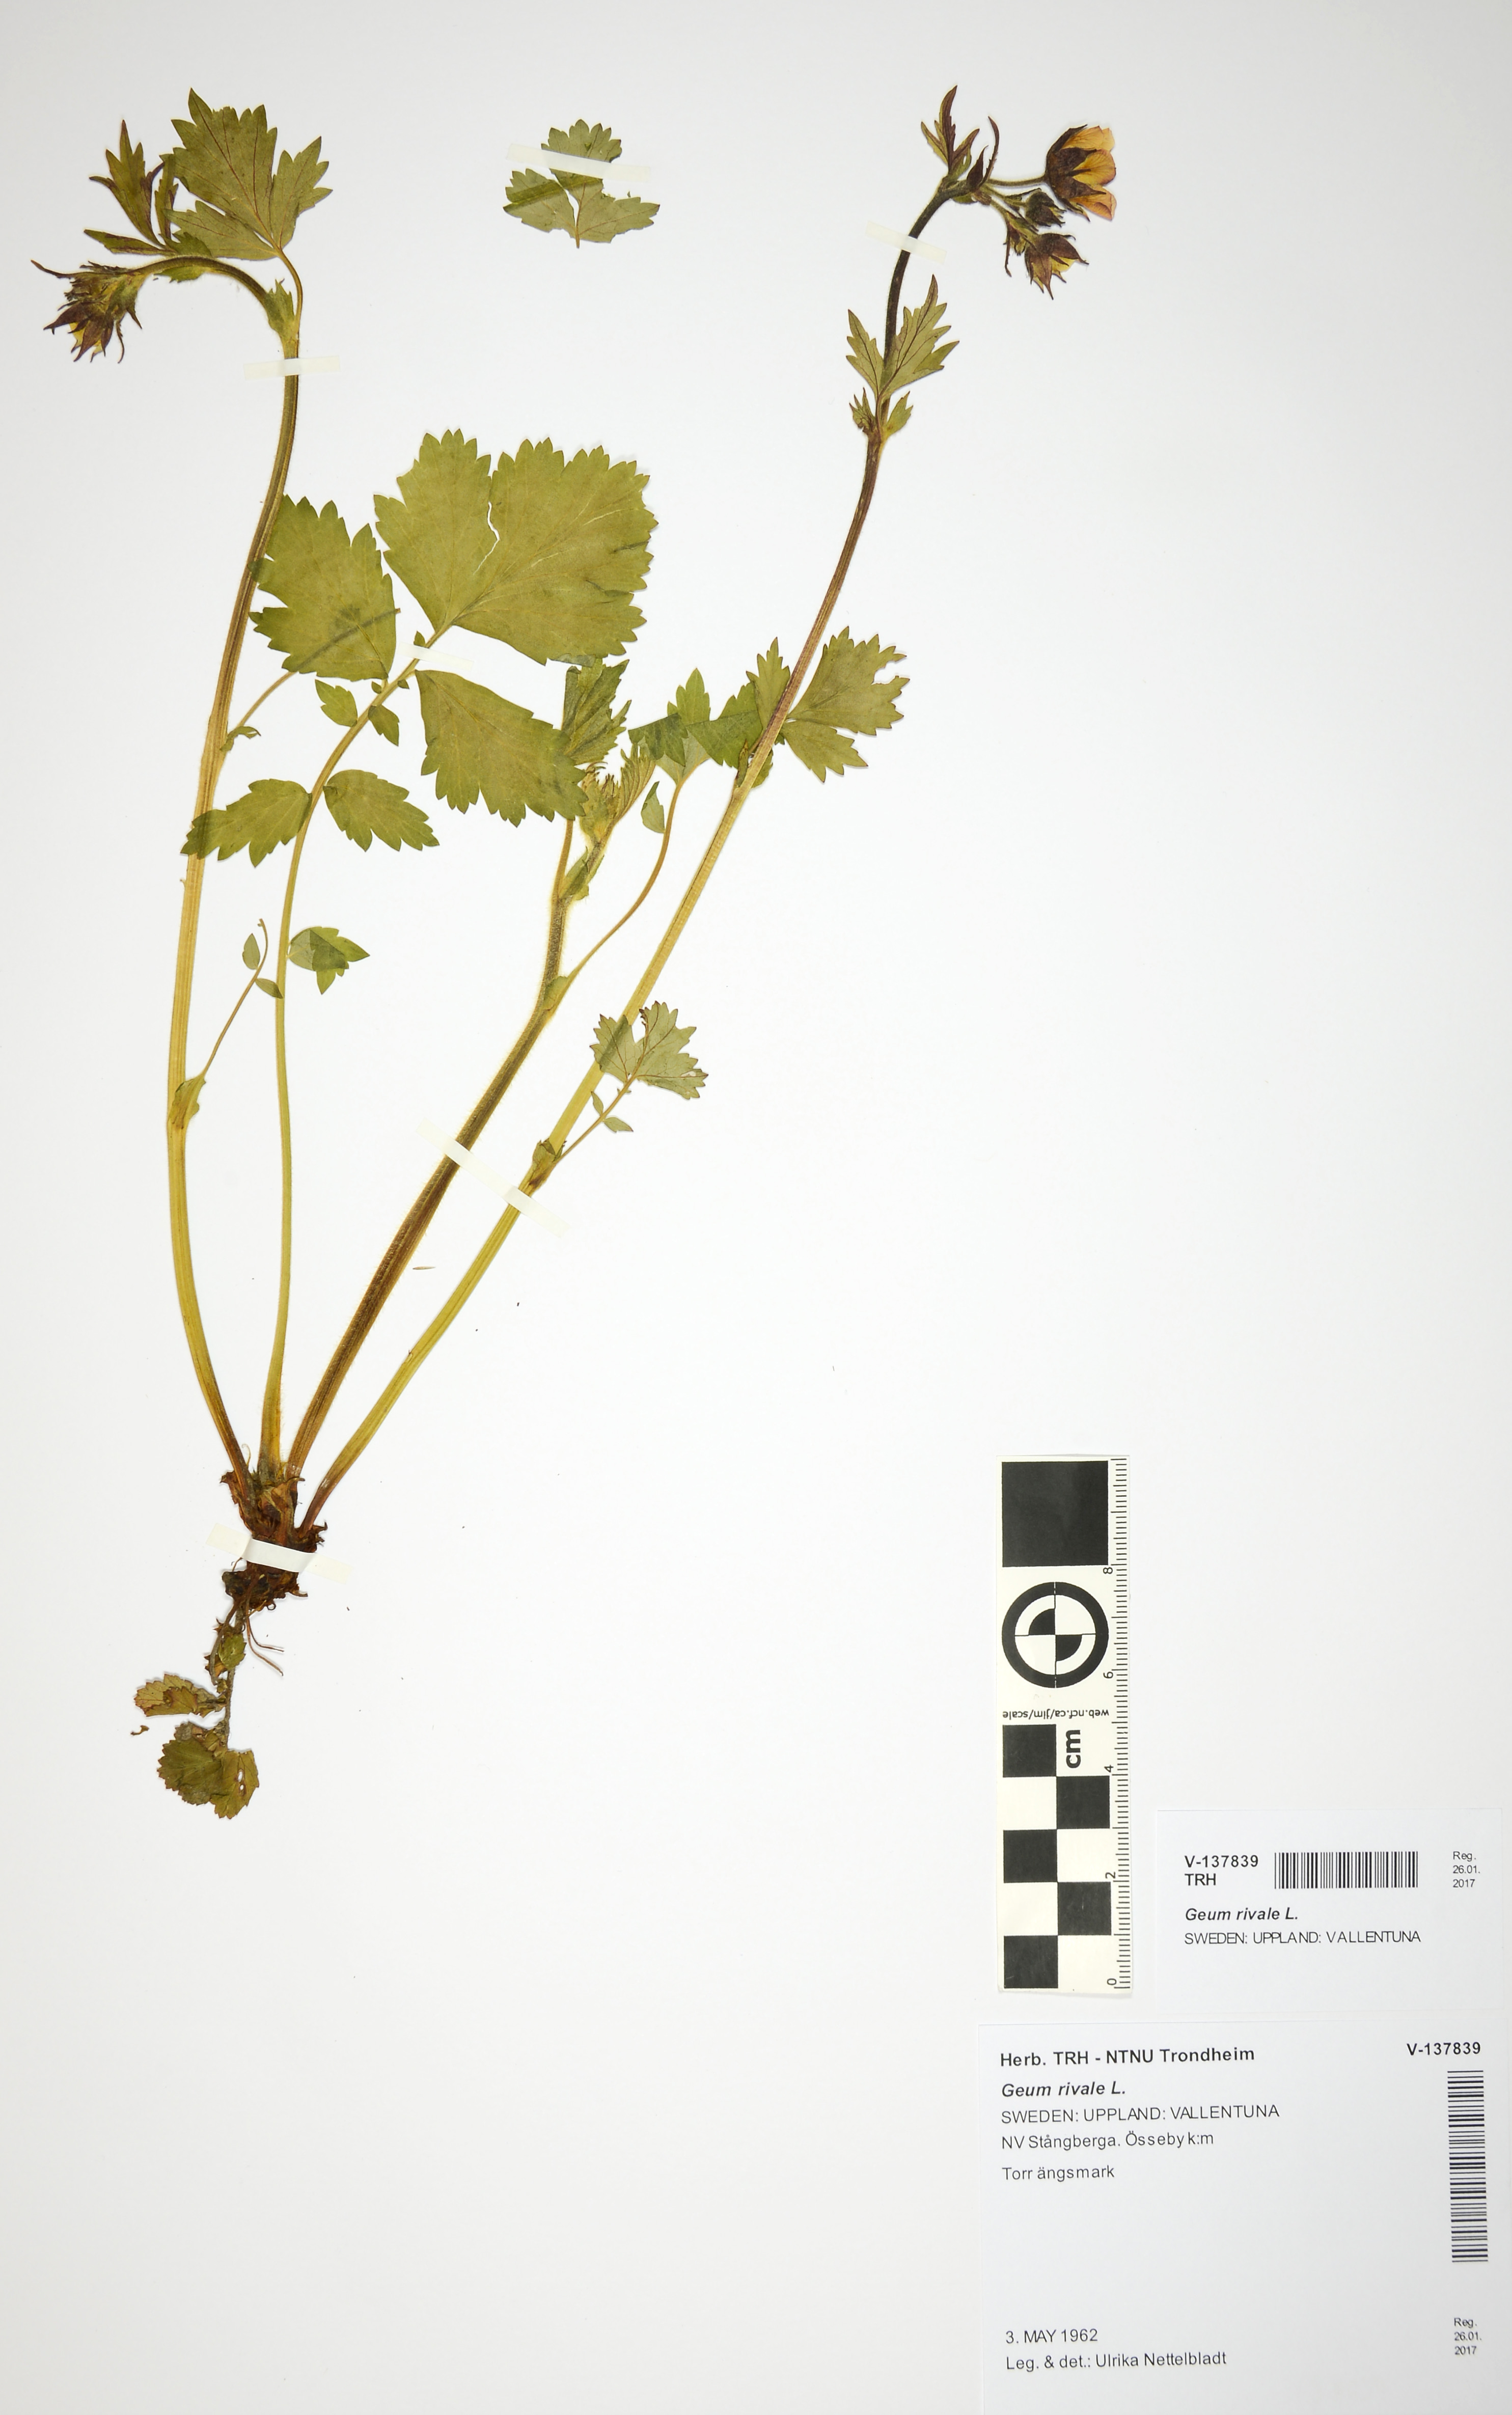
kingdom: Plantae
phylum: Tracheophyta
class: Magnoliopsida
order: Rosales
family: Rosaceae
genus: Geum
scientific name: Geum rivale
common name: Water avens
